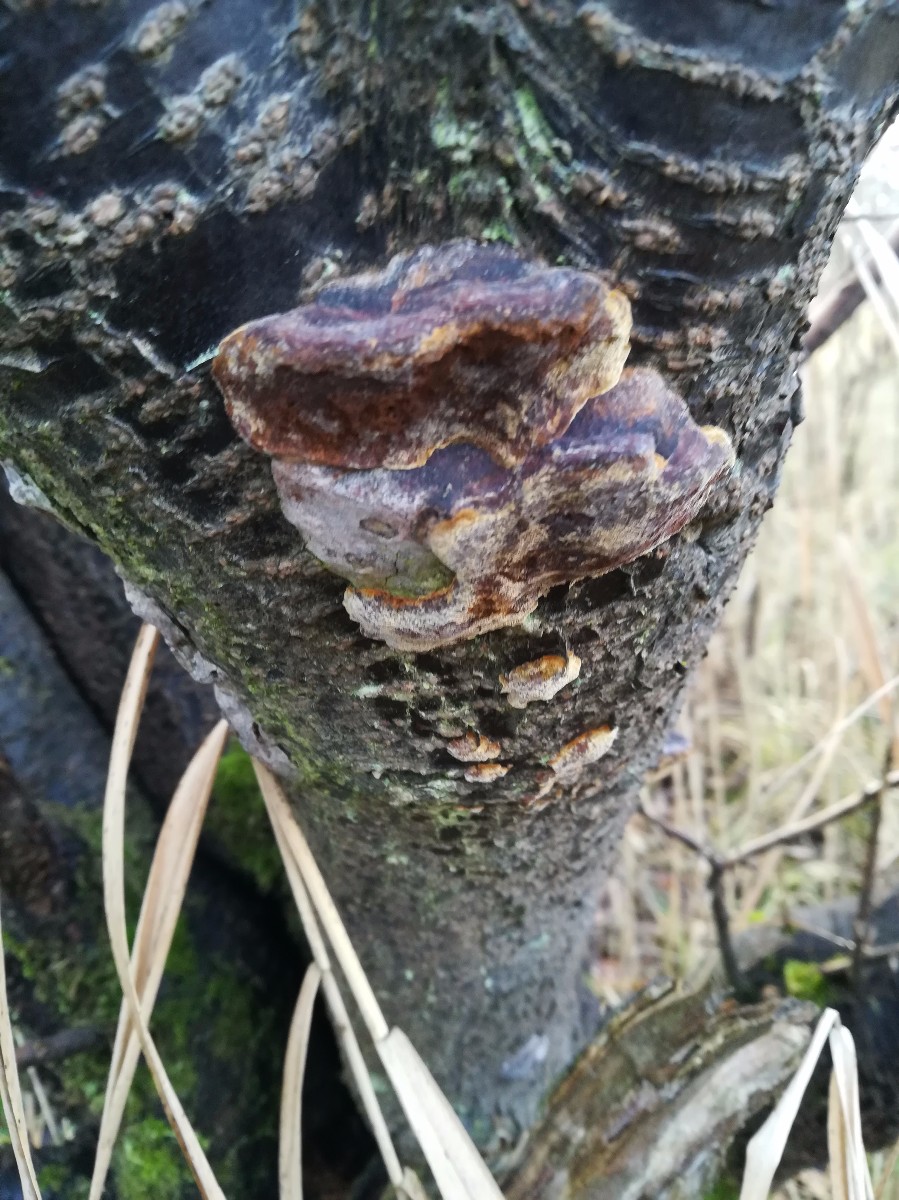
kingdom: Fungi
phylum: Basidiomycota
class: Agaricomycetes
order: Hymenochaetales
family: Hymenochaetaceae
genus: Phellinus
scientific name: Phellinus pomaceus
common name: blomme-ildporesvamp
